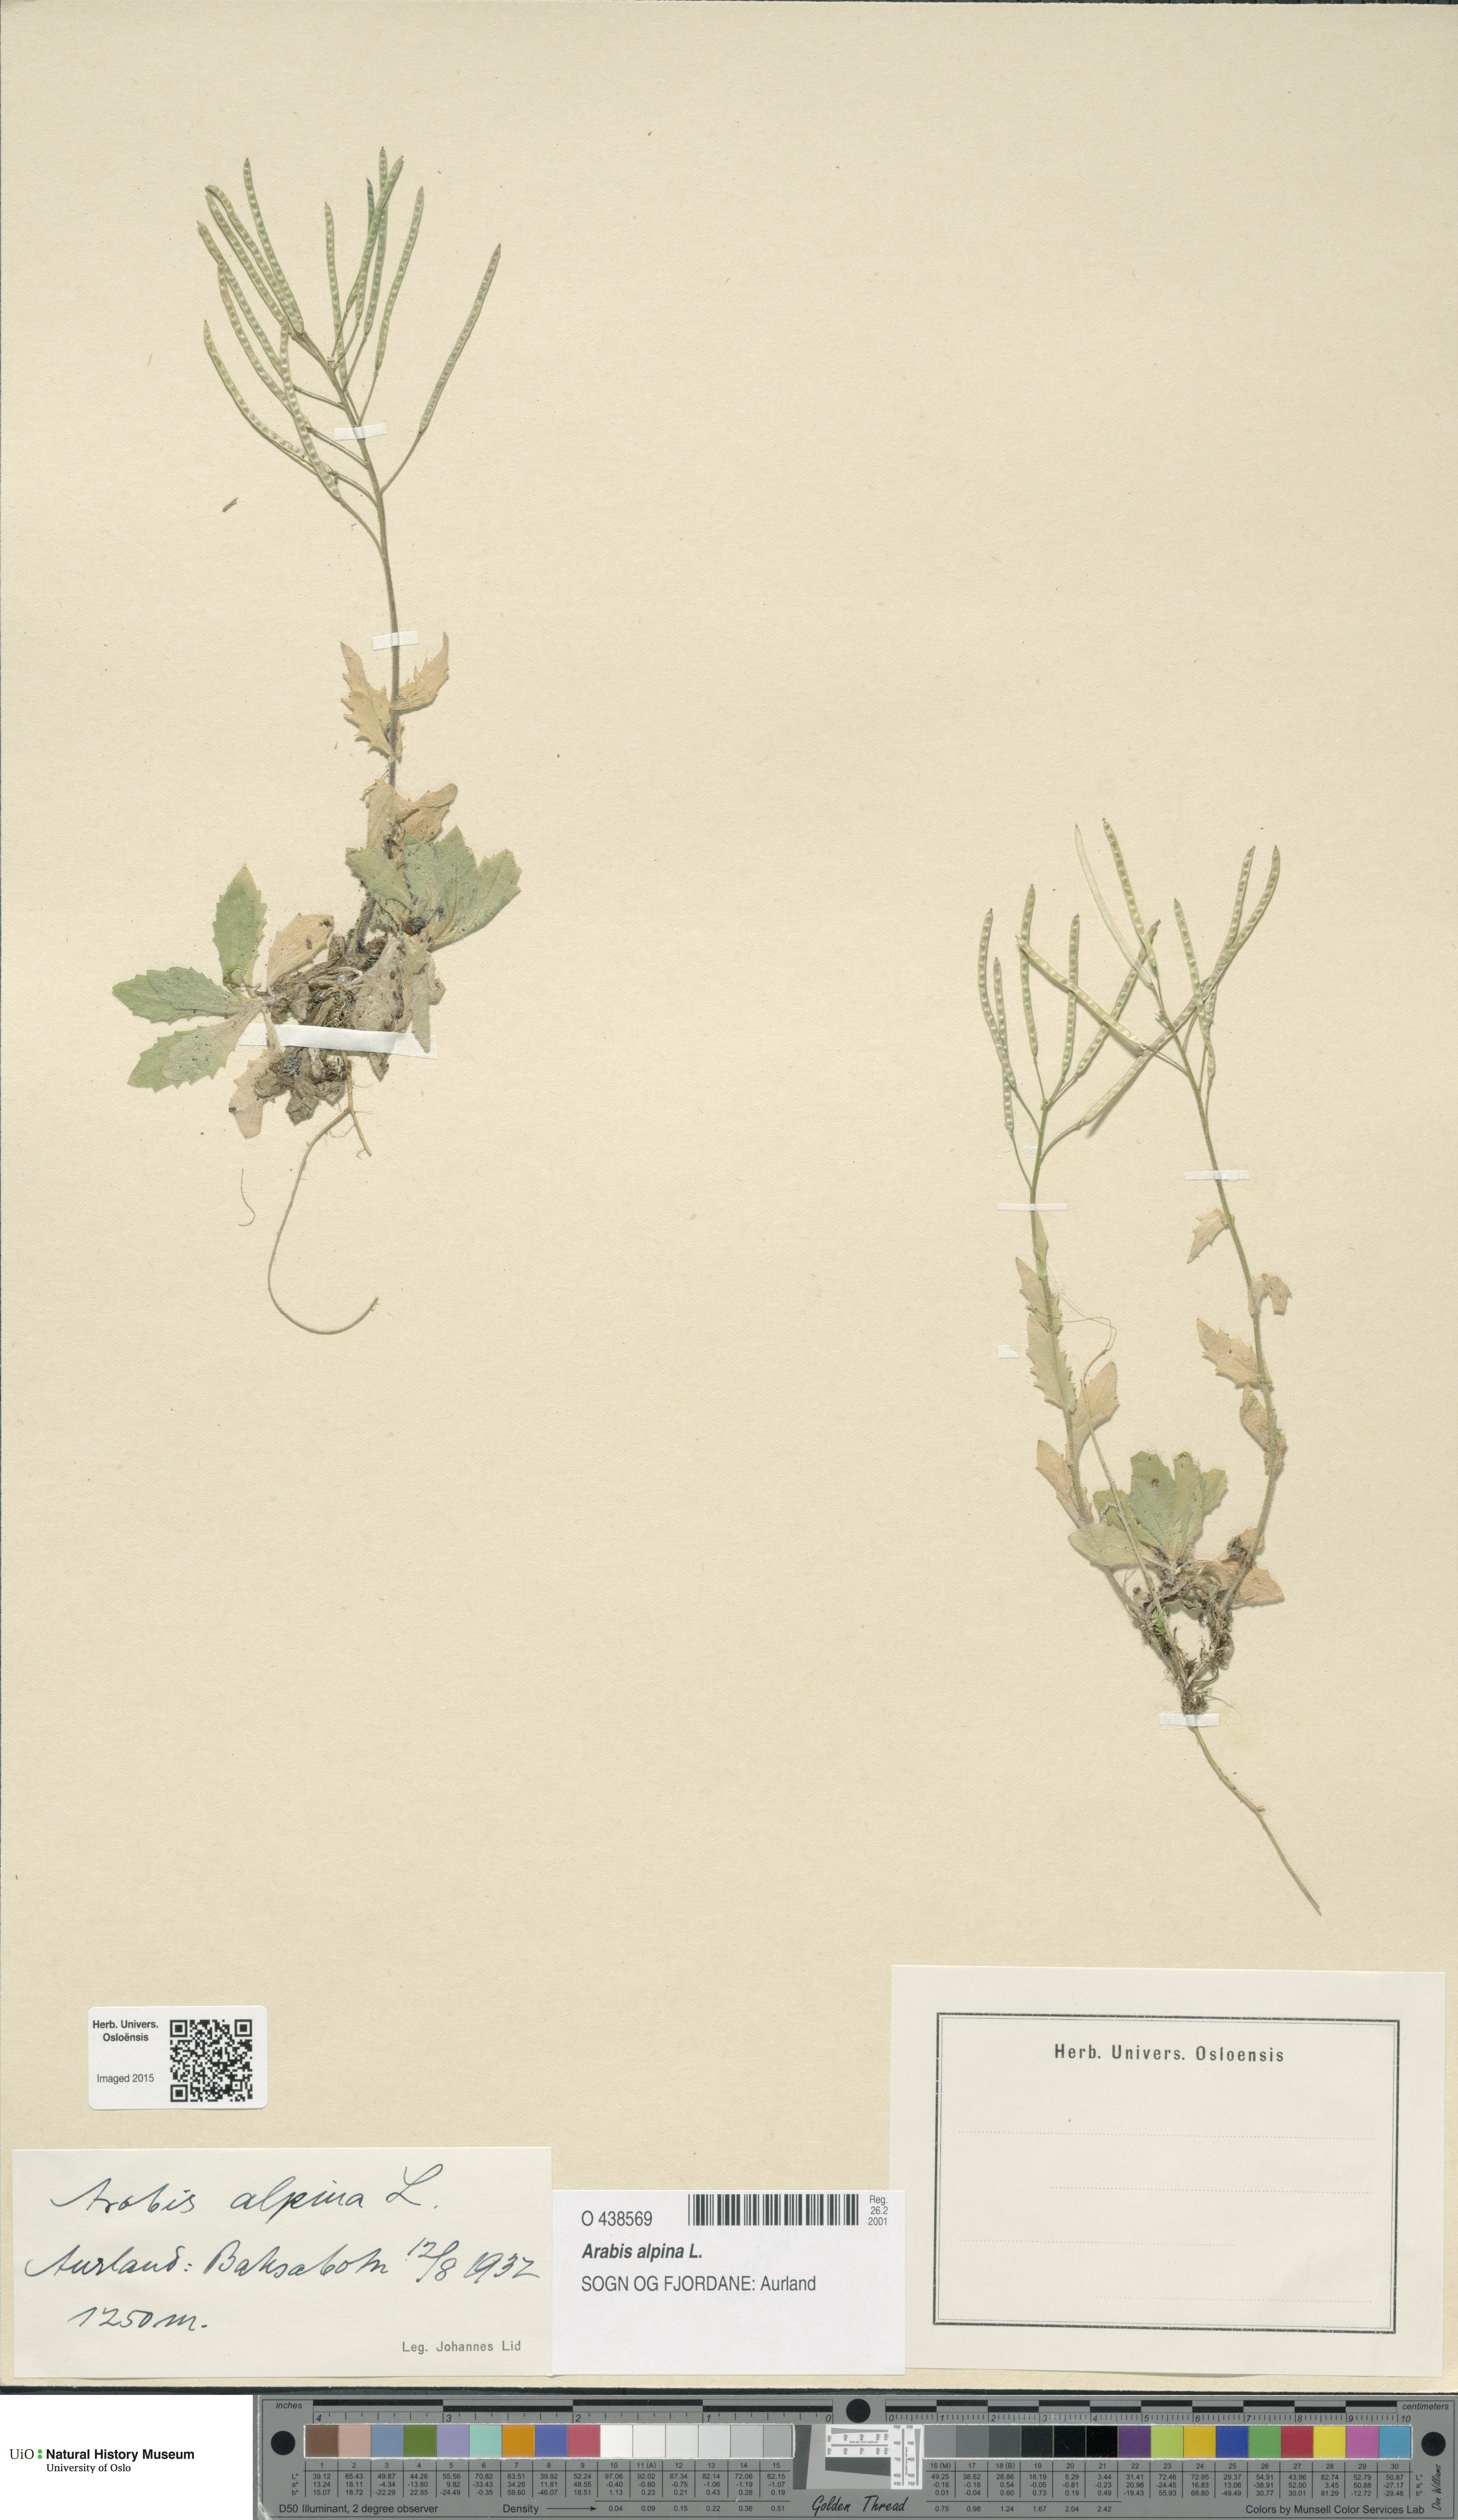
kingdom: Plantae
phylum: Tracheophyta
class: Magnoliopsida
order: Brassicales
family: Brassicaceae
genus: Arabis
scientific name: Arabis alpina
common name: Alpine rock-cress
